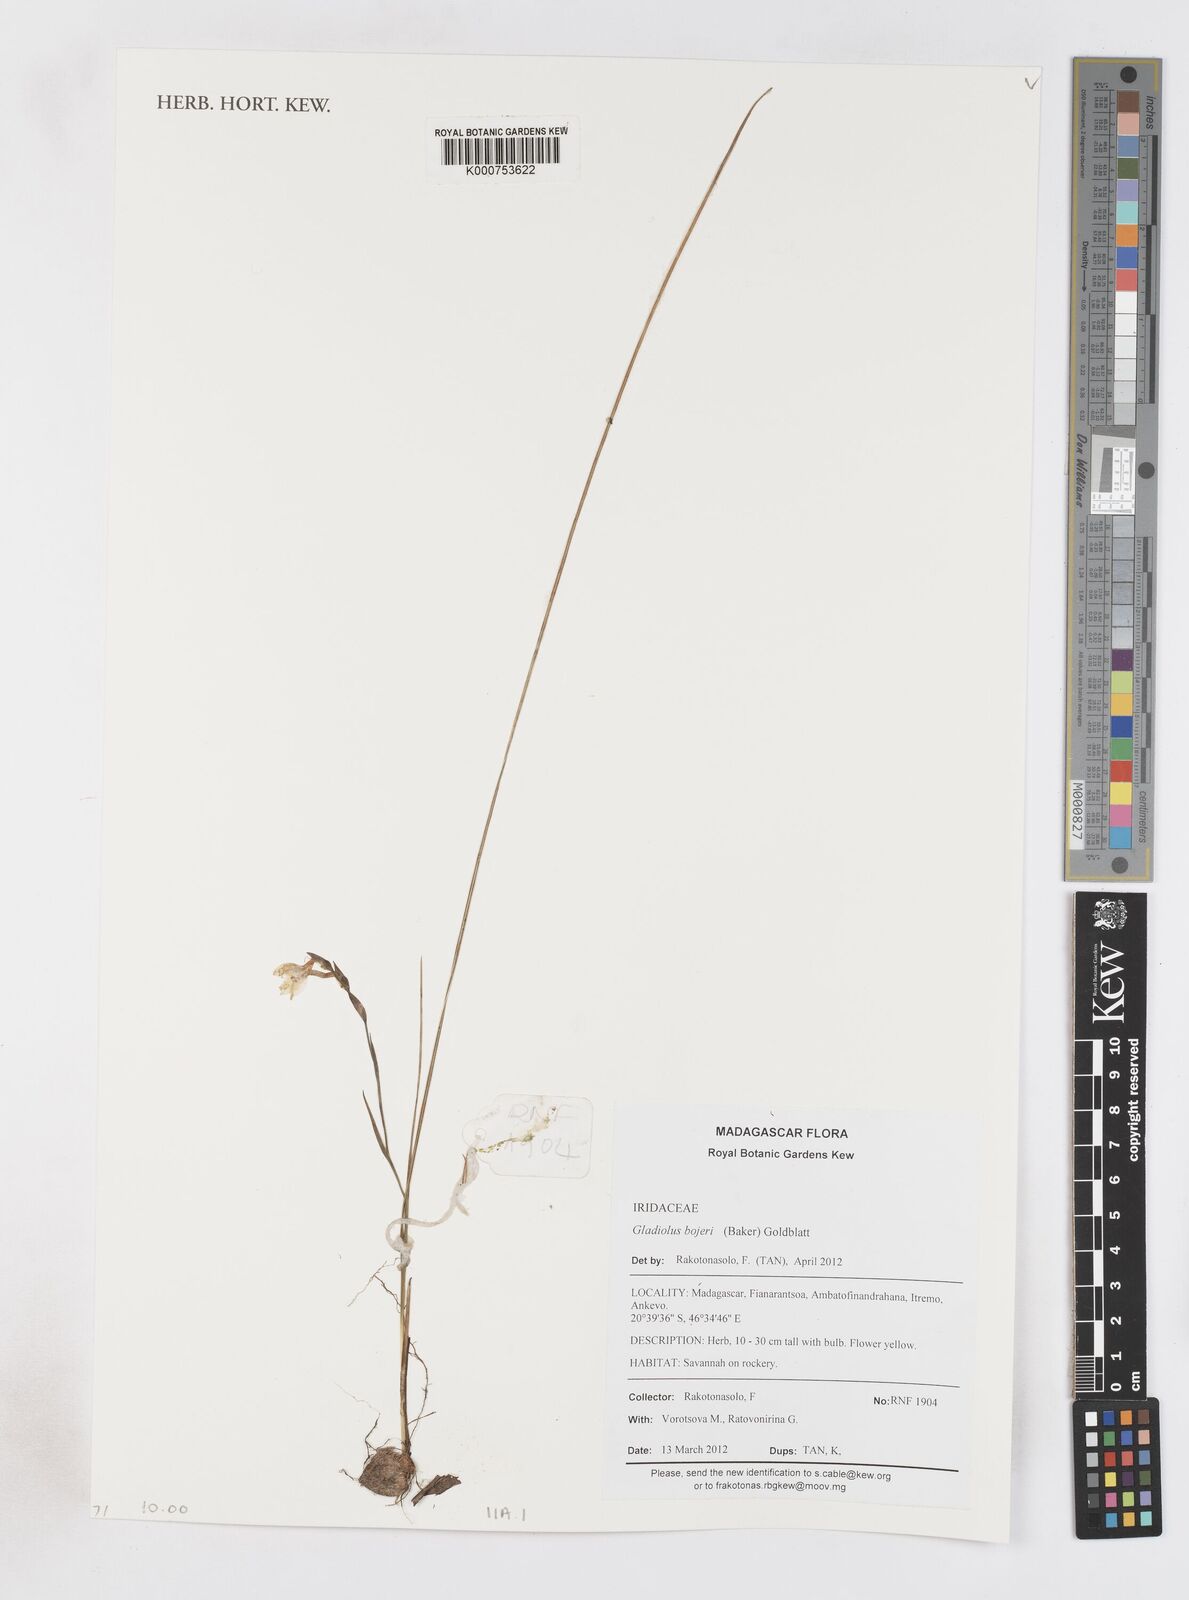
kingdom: Plantae
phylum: Tracheophyta
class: Liliopsida
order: Asparagales
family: Iridaceae
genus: Gladiolus
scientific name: Gladiolus bojeri
